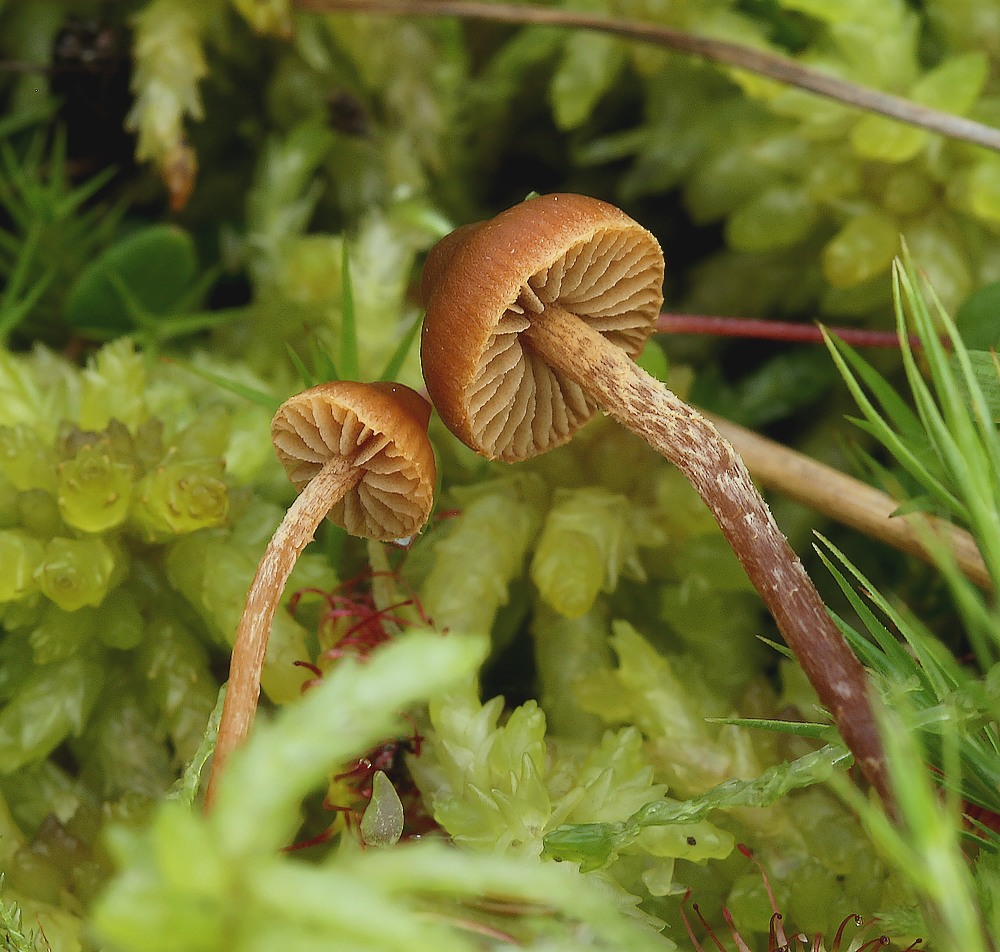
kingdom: Fungi
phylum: Basidiomycota
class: Agaricomycetes
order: Agaricales
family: Hymenogastraceae
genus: Galerina
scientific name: Galerina paludosa
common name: mose-hjelmhat
